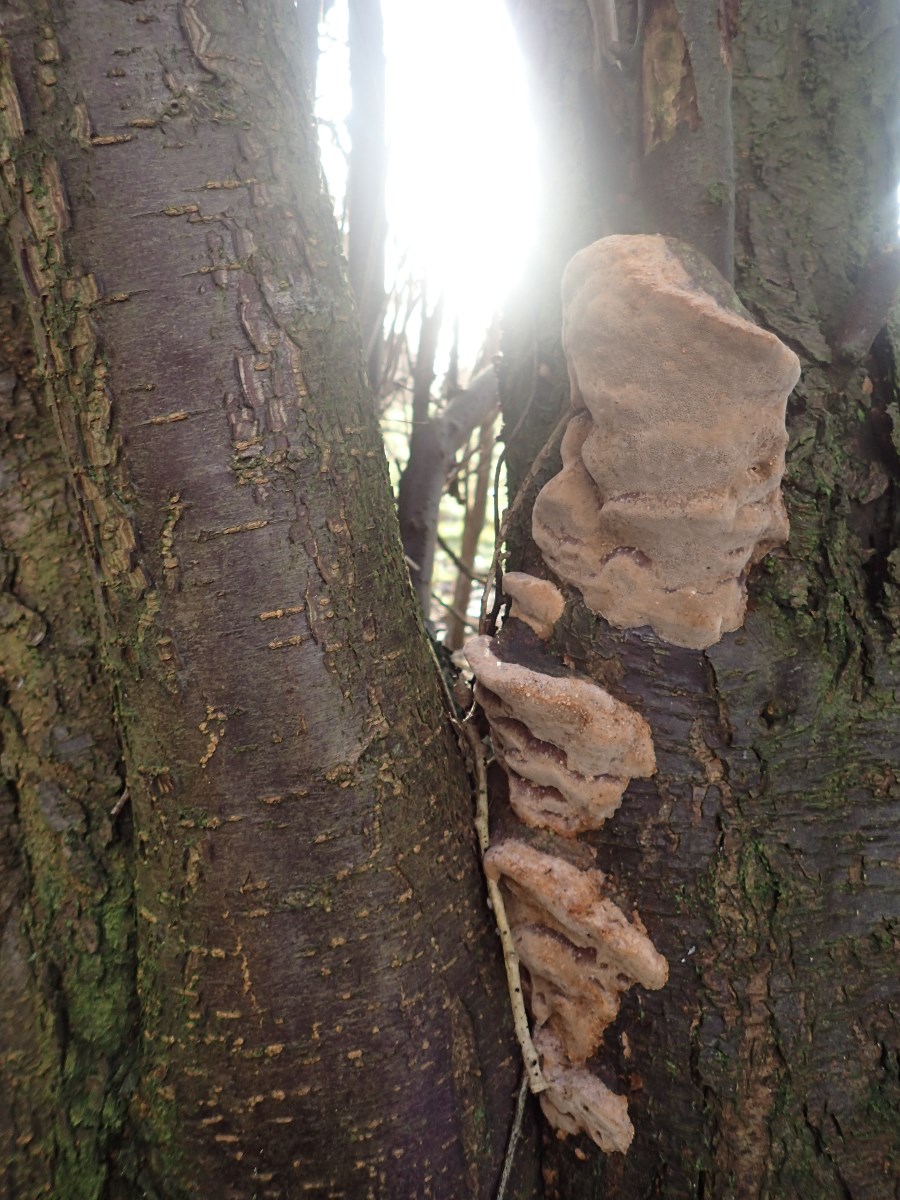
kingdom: Fungi
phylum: Basidiomycota
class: Agaricomycetes
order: Hymenochaetales
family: Hymenochaetaceae
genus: Phellinus
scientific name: Phellinus pomaceus
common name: blomme-ildporesvamp
